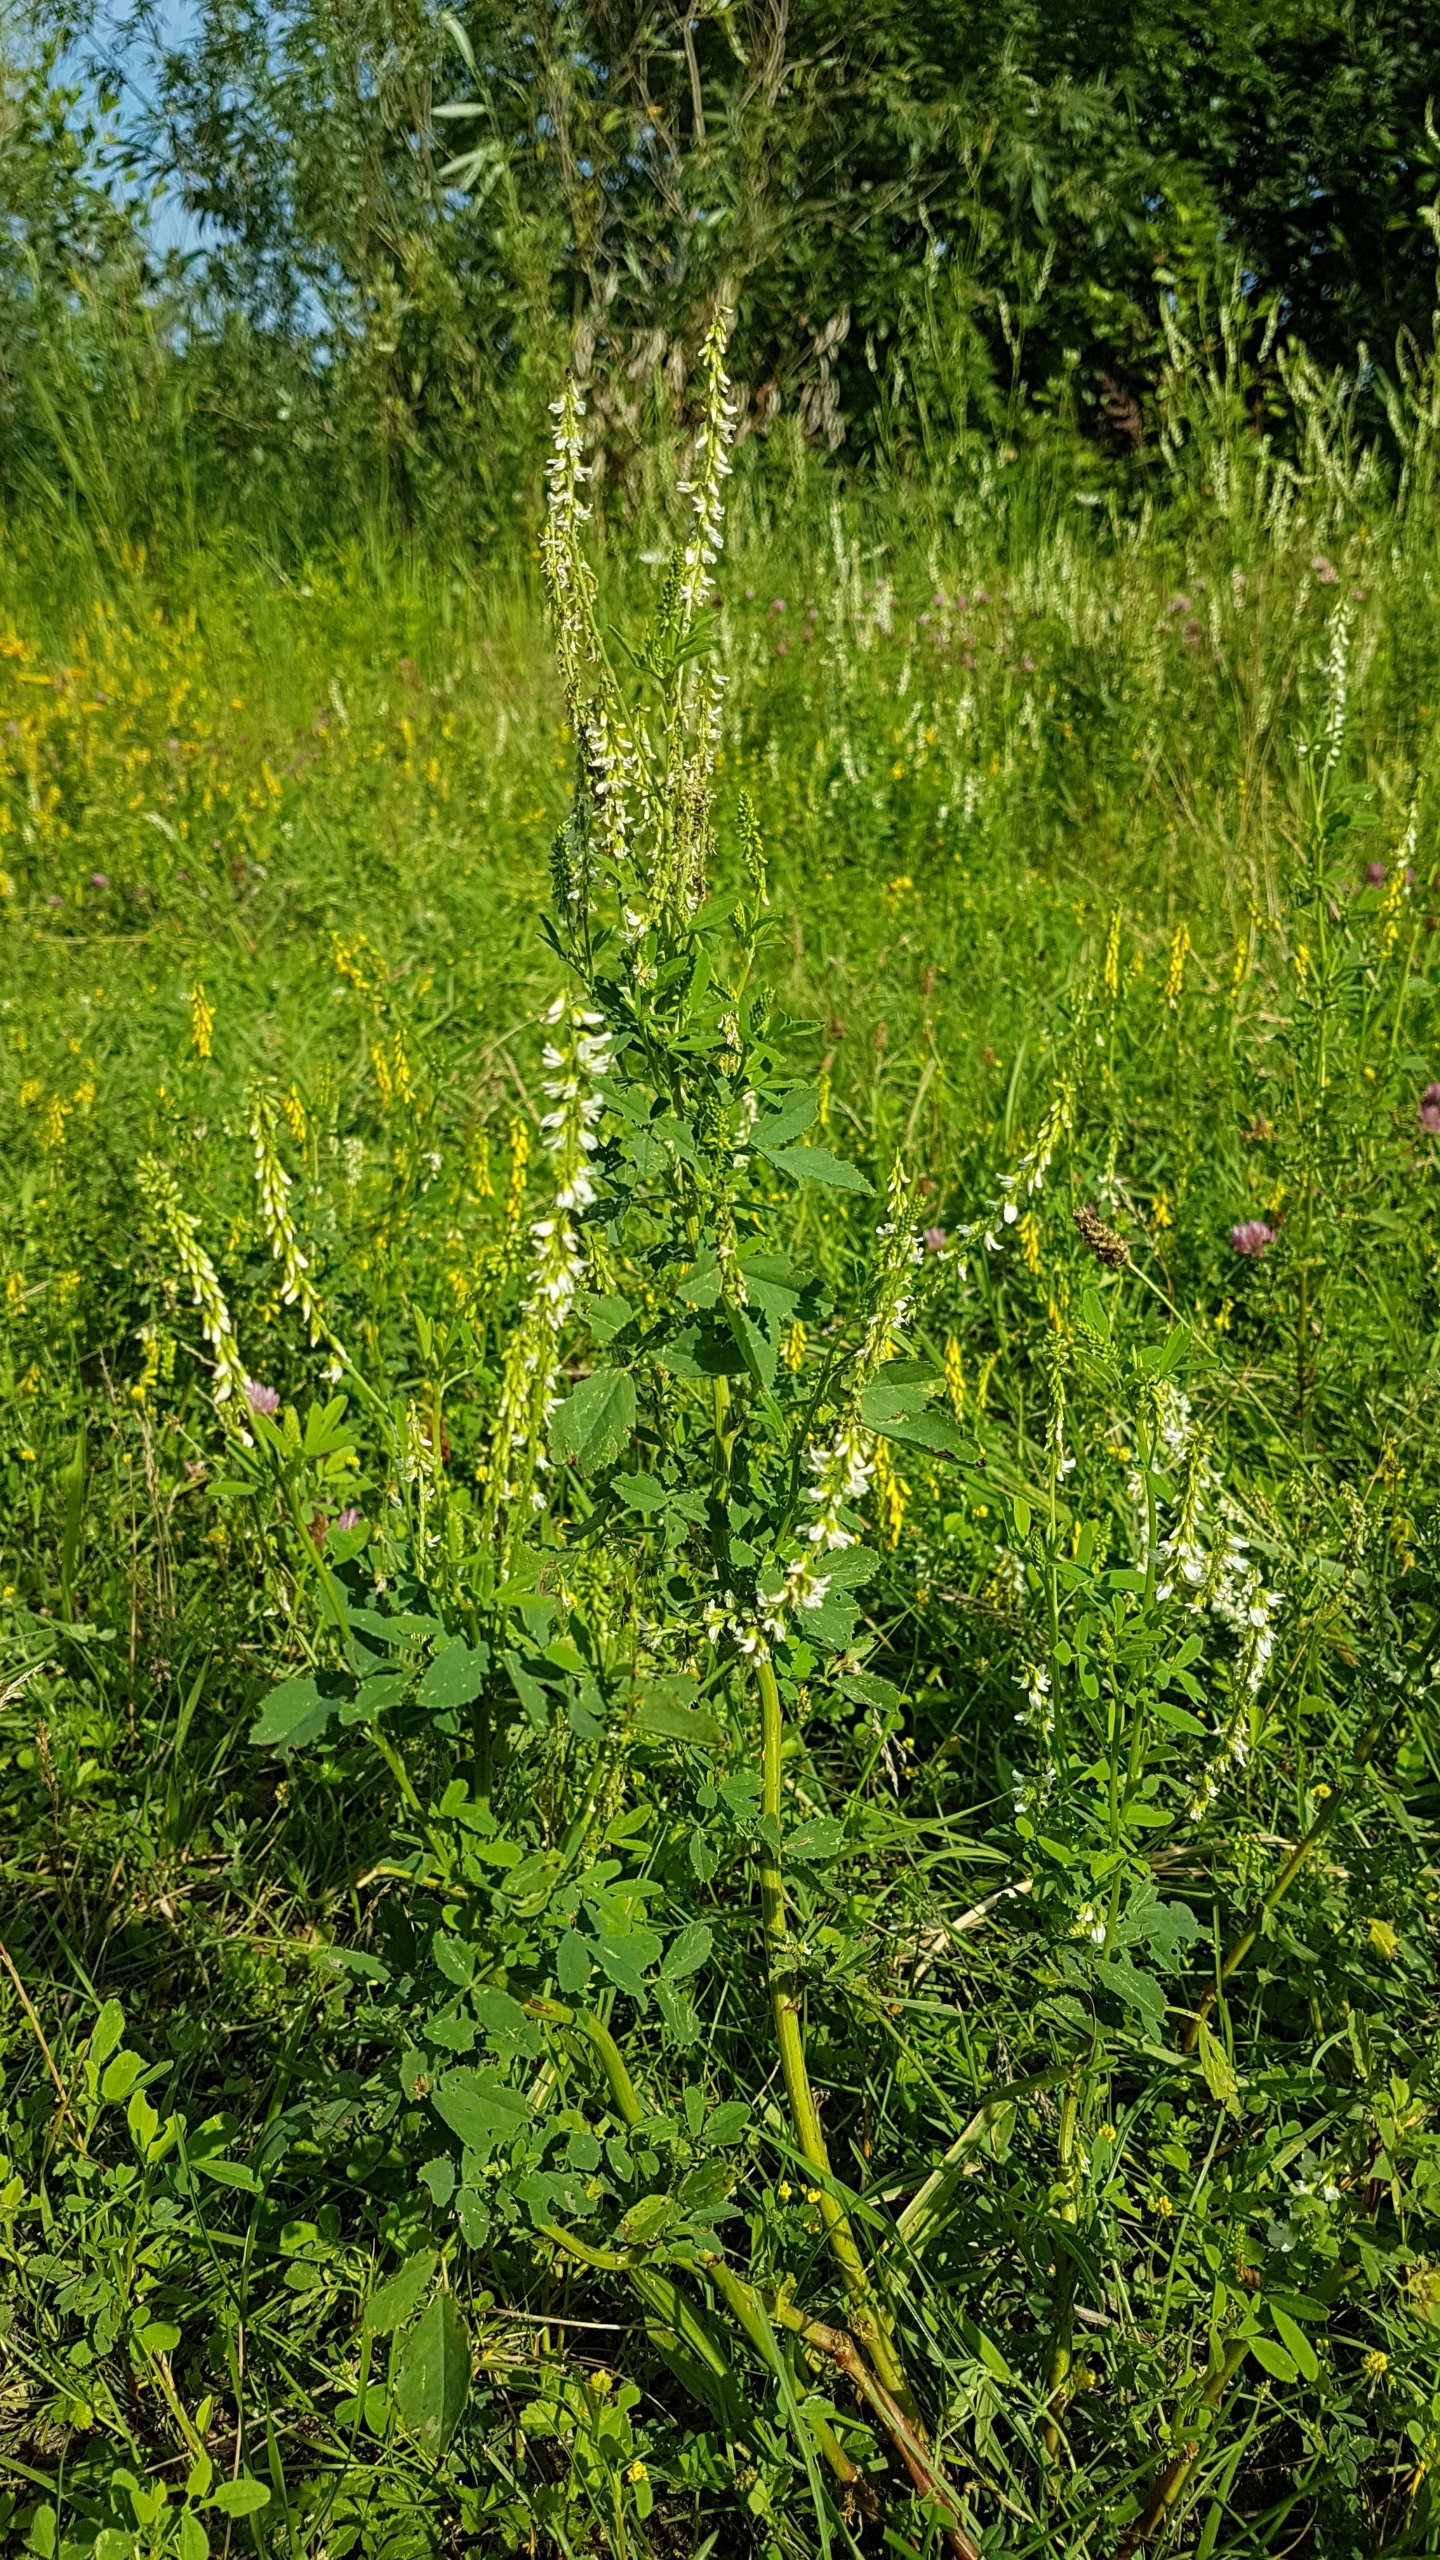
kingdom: Plantae
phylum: Tracheophyta
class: Magnoliopsida
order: Fabales
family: Fabaceae
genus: Melilotus
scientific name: Melilotus albus
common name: Hvid stenkløver
